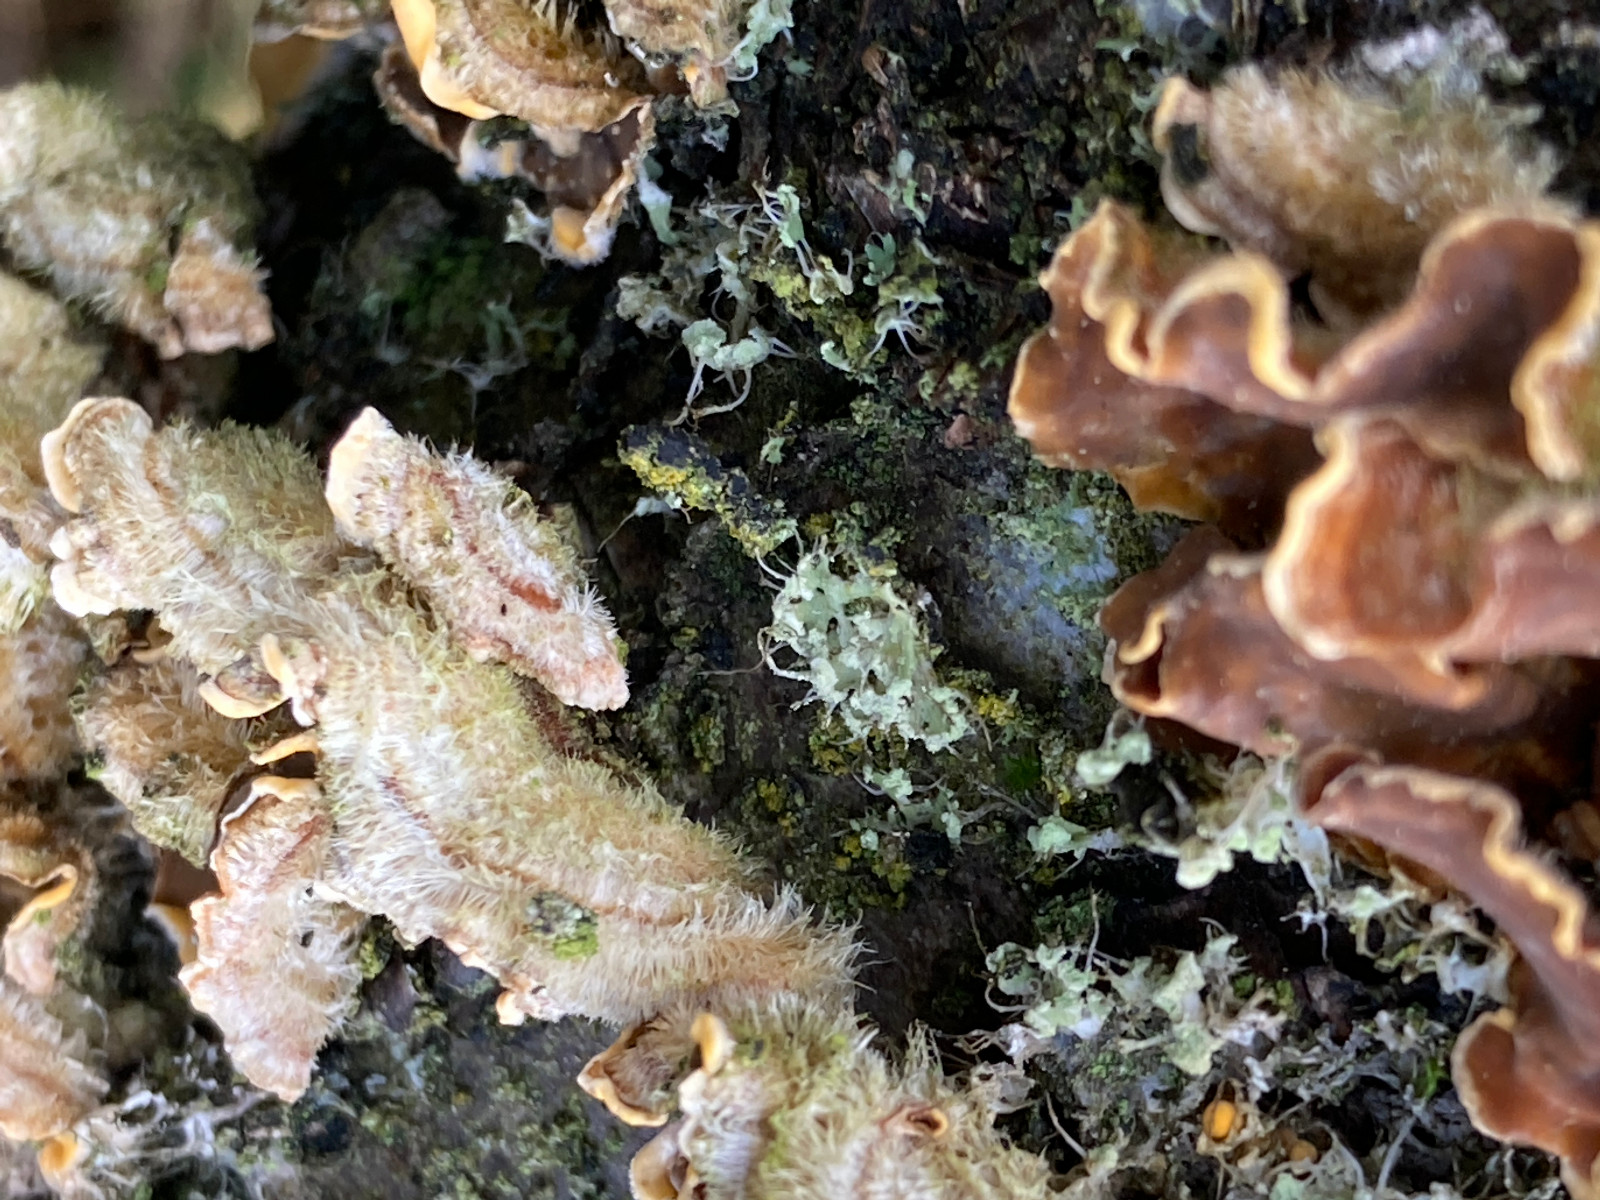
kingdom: Fungi
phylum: Basidiomycota
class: Agaricomycetes
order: Russulales
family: Stereaceae
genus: Stereum
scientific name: Stereum hirsutum
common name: håret lædersvamp
